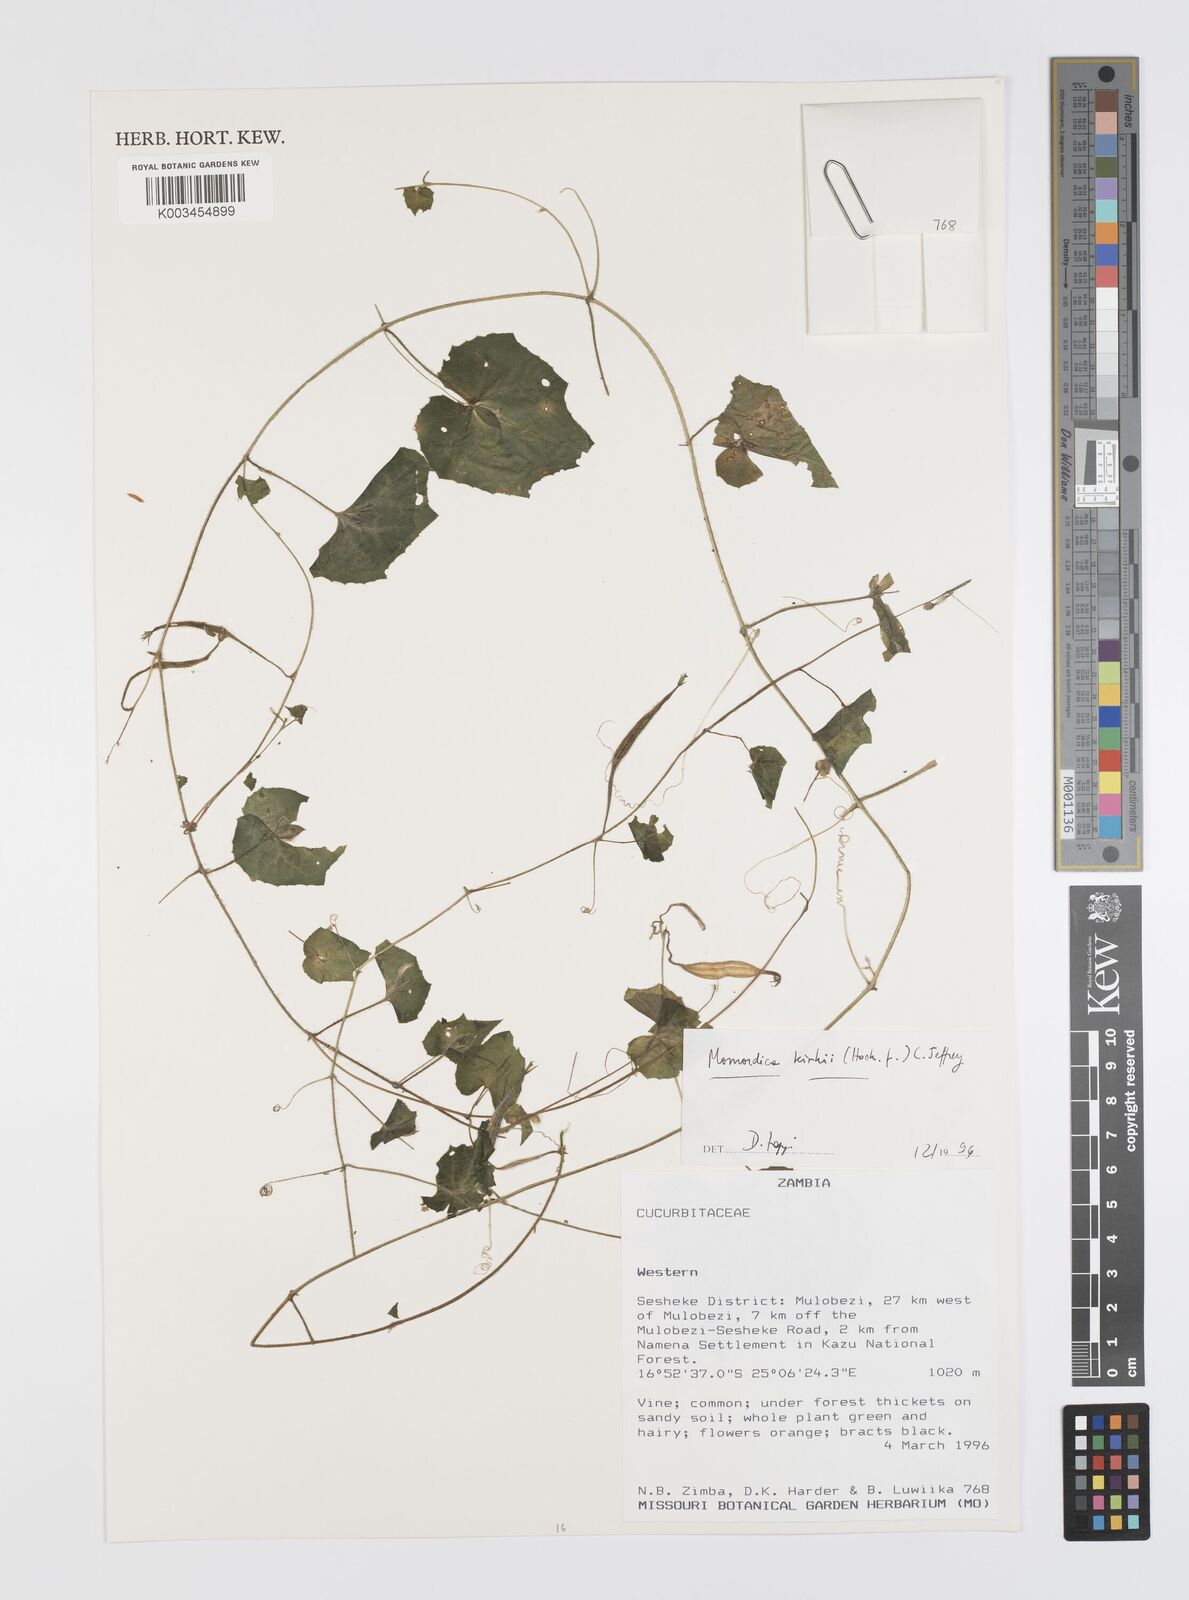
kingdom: Plantae
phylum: Tracheophyta
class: Magnoliopsida
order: Cucurbitales
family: Cucurbitaceae
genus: Momordica
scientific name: Momordica kirkii
